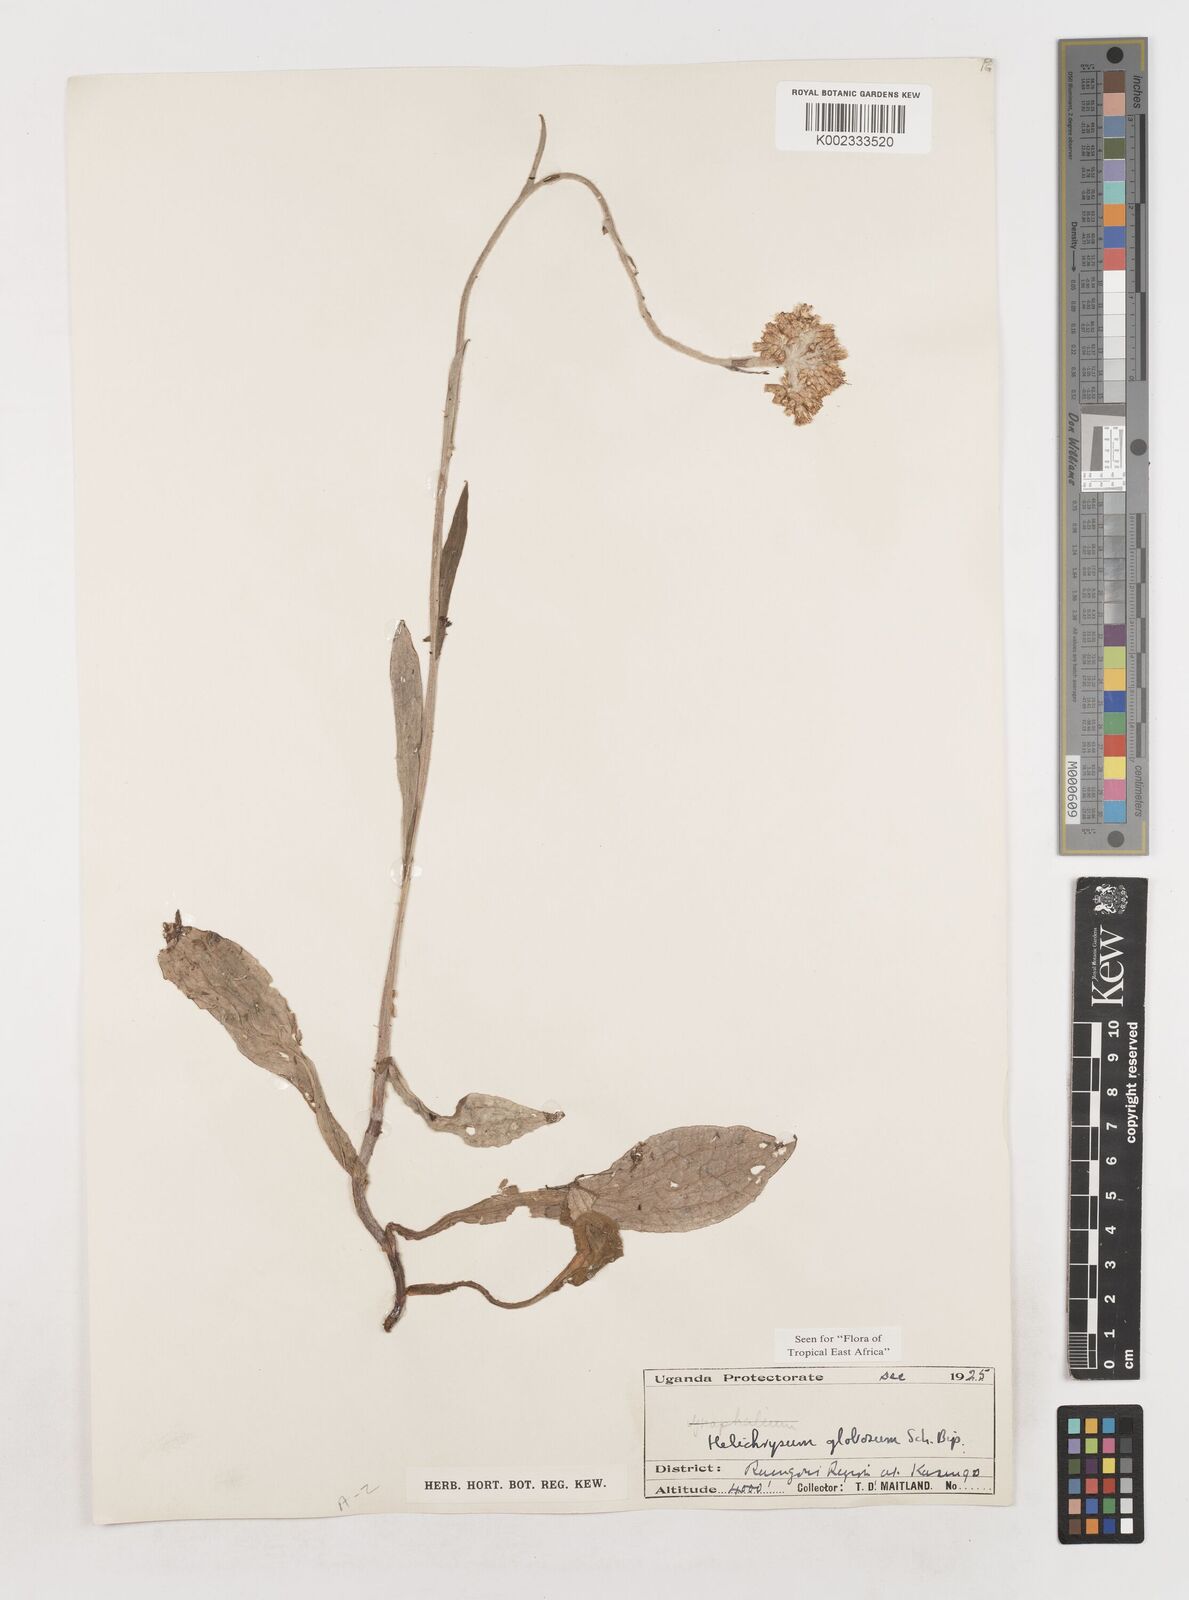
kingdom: Plantae
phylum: Tracheophyta
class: Magnoliopsida
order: Asterales
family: Asteraceae
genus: Helichrysum
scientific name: Helichrysum globosum
